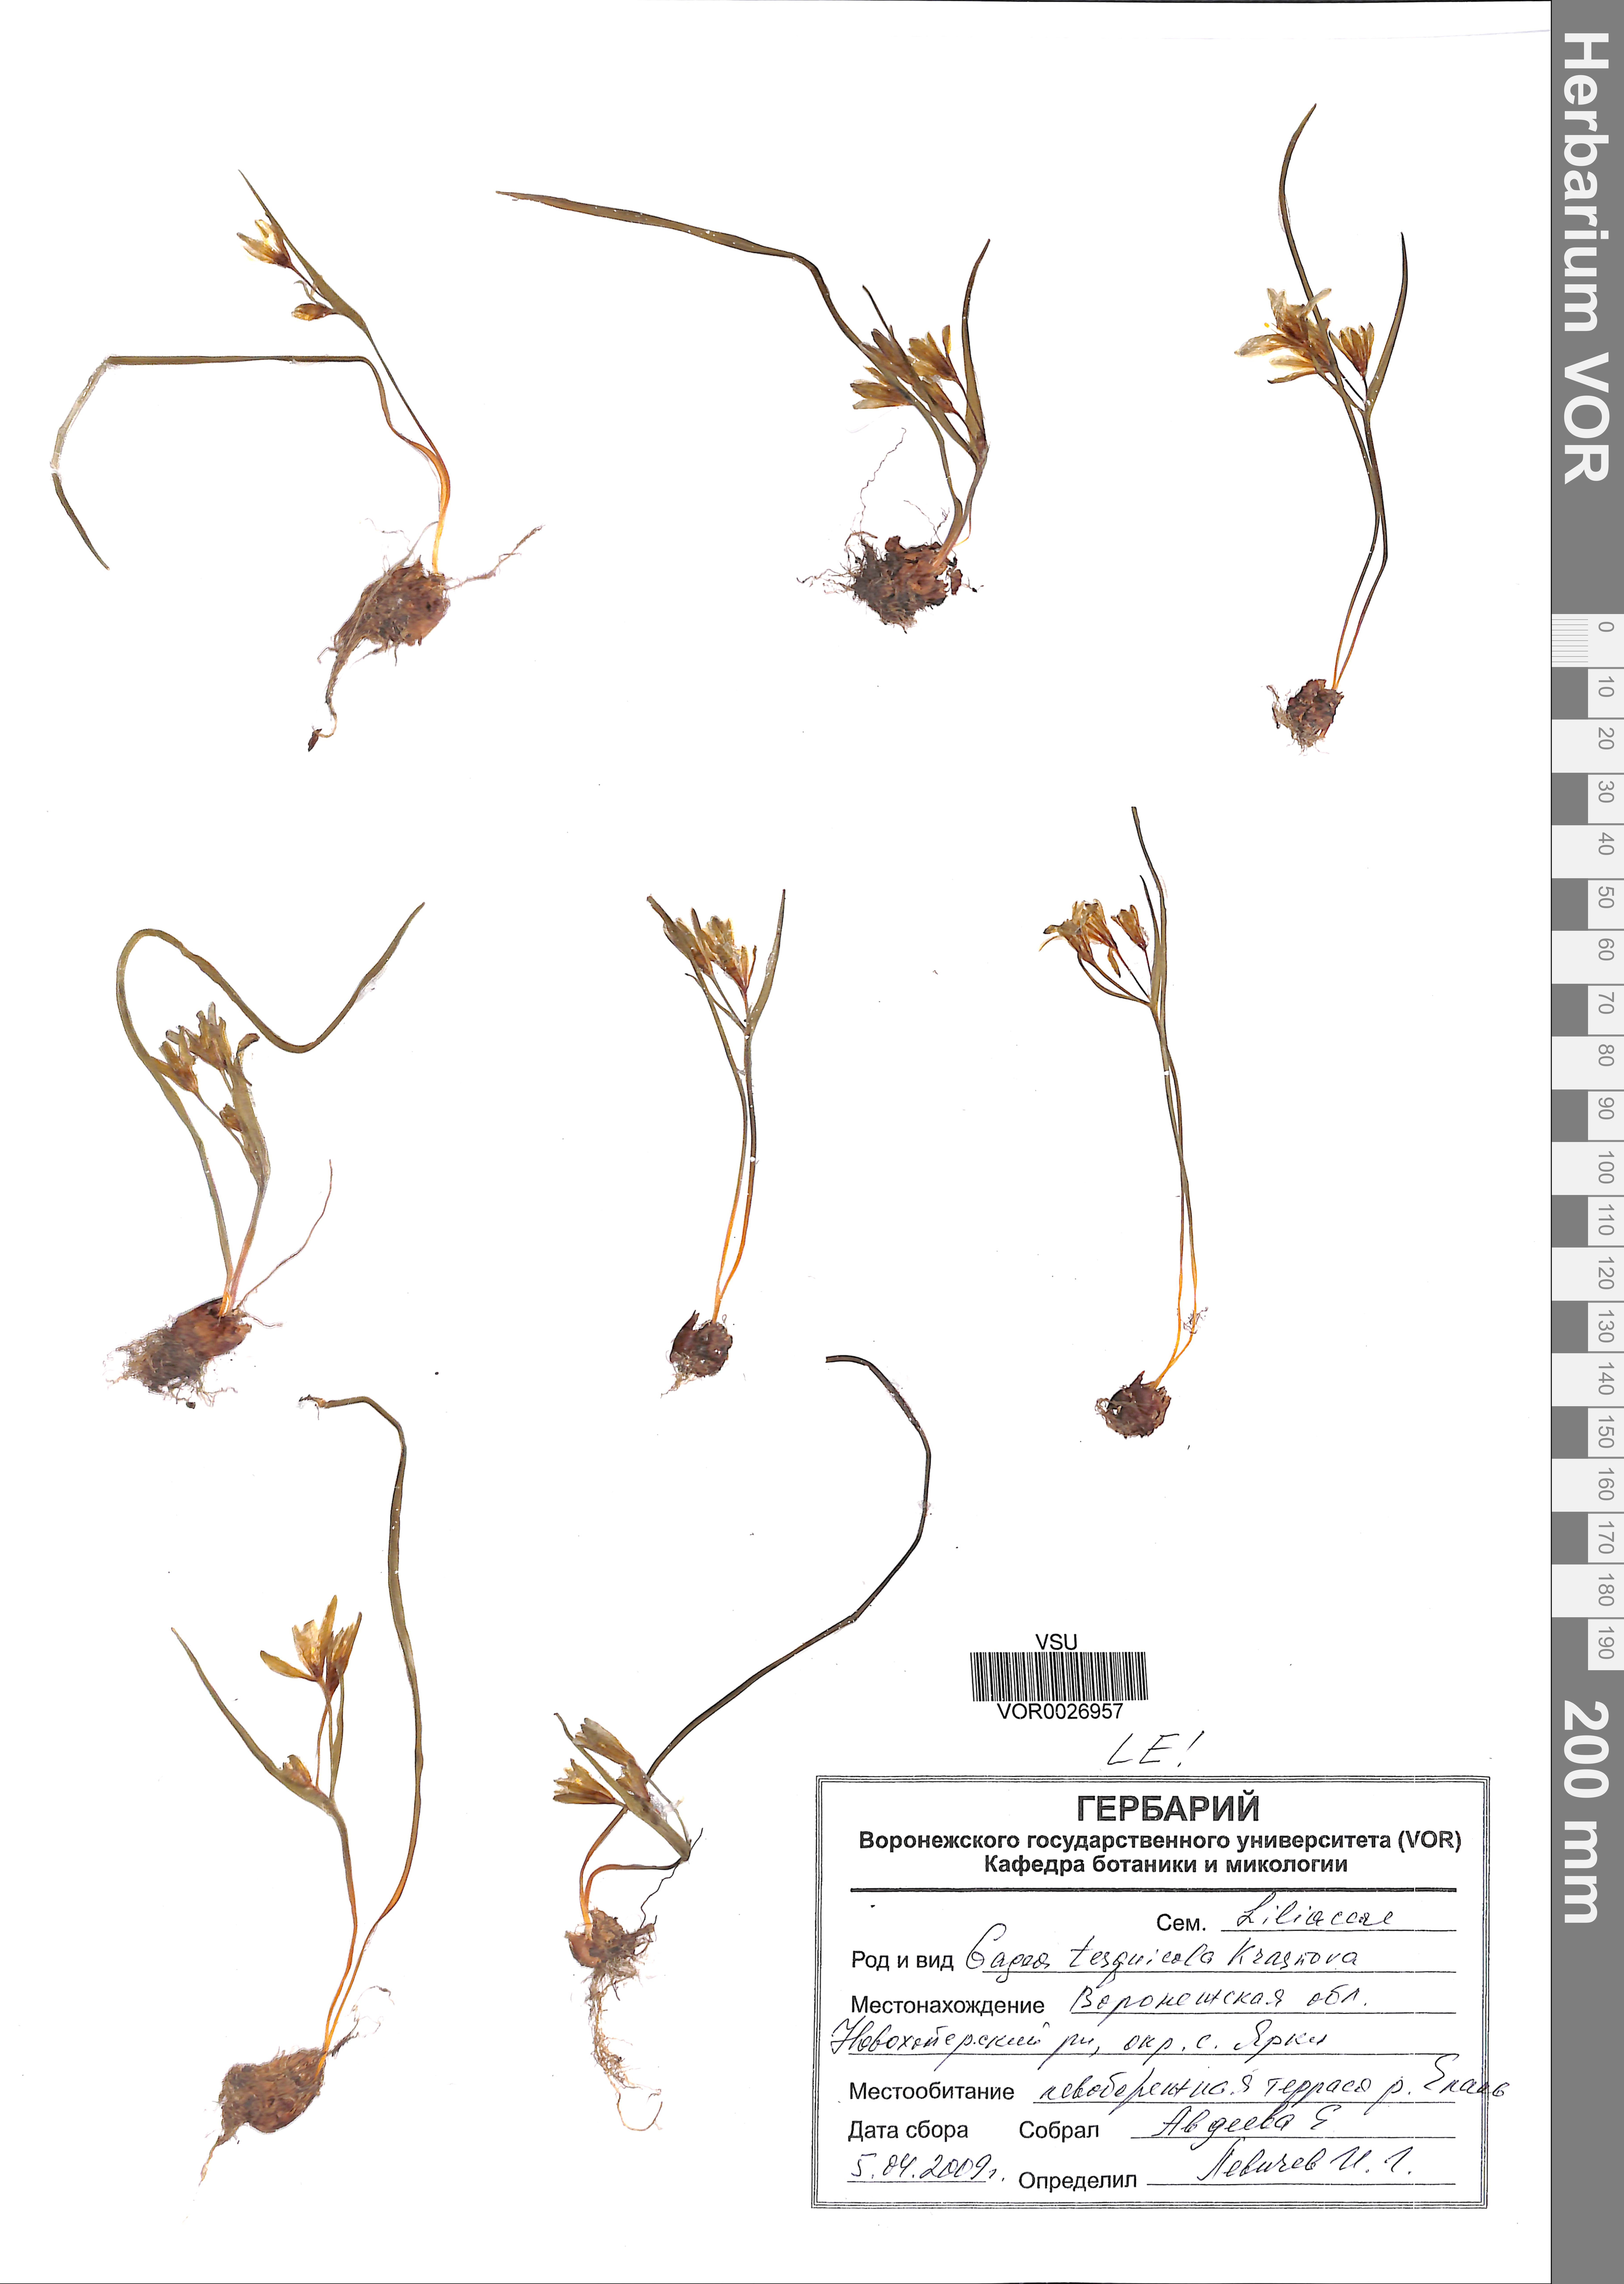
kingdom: Plantae
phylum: Tracheophyta
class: Liliopsida
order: Liliales
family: Liliaceae
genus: Gagea
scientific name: Gagea tesquicola
